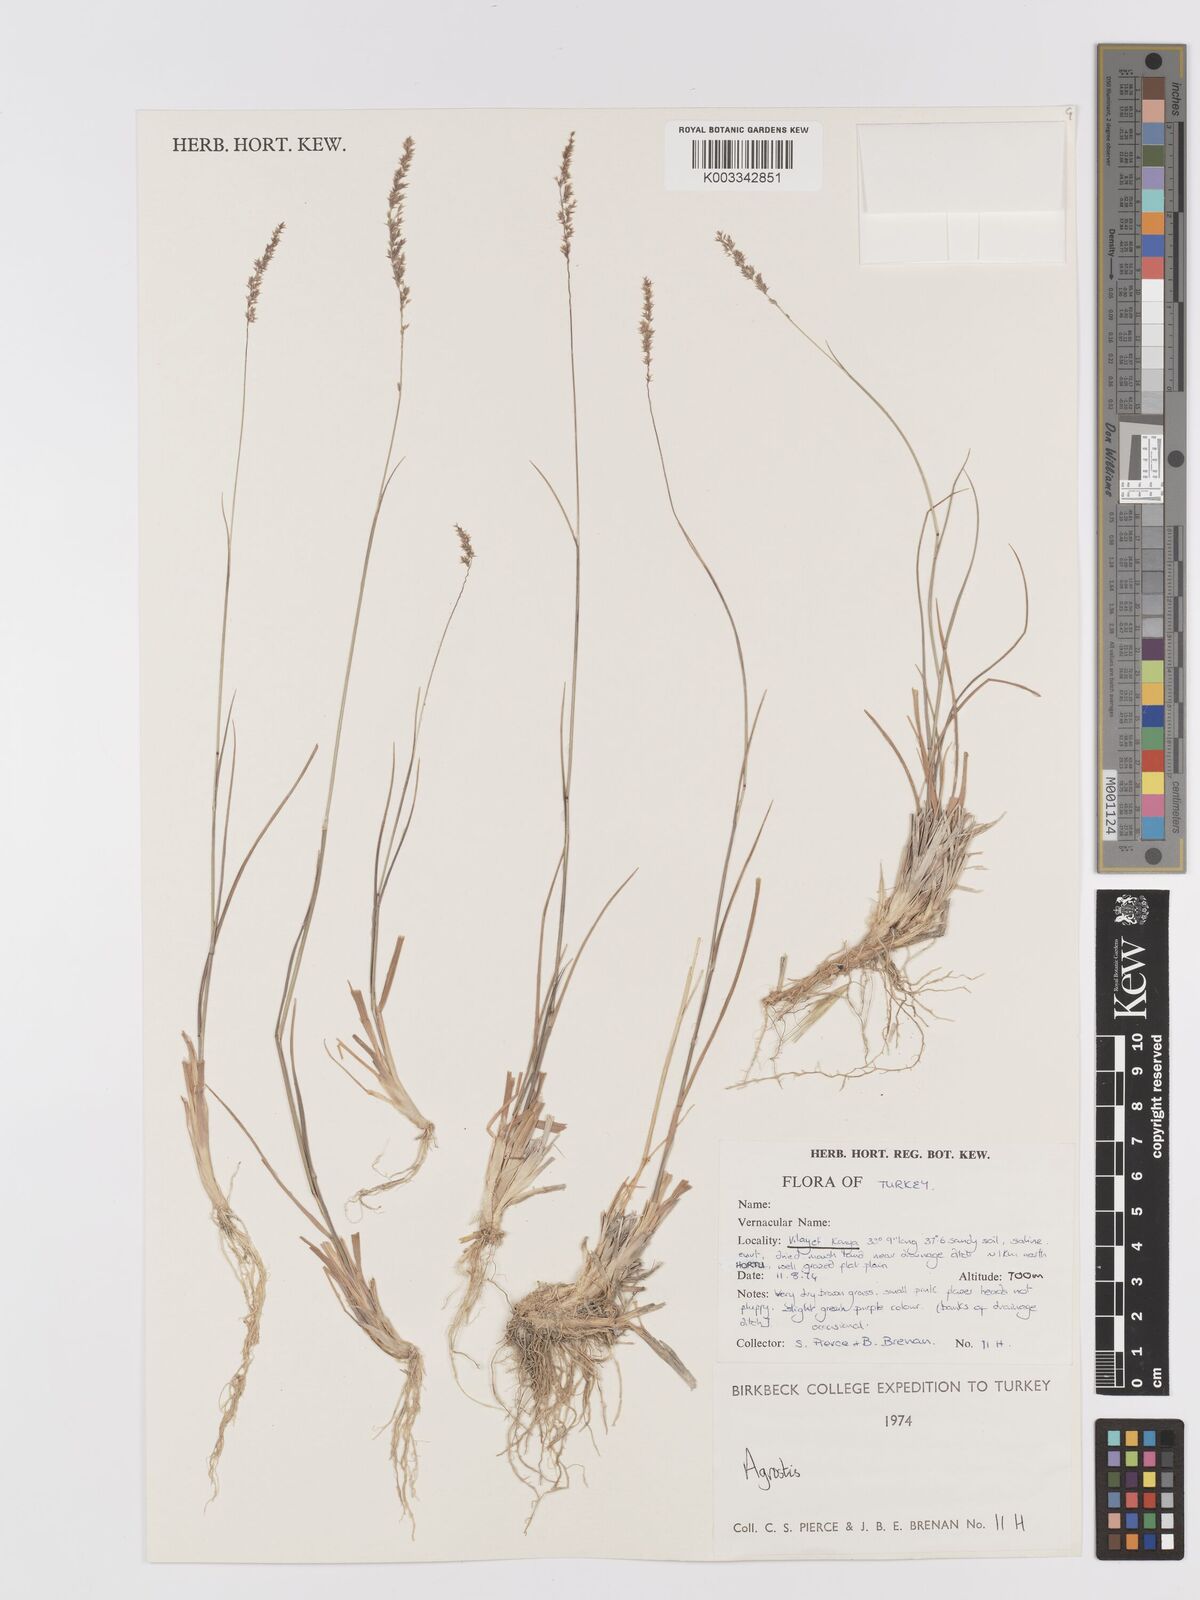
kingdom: Plantae
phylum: Tracheophyta
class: Liliopsida
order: Poales
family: Poaceae
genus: Agrostis
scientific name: Agrostis
